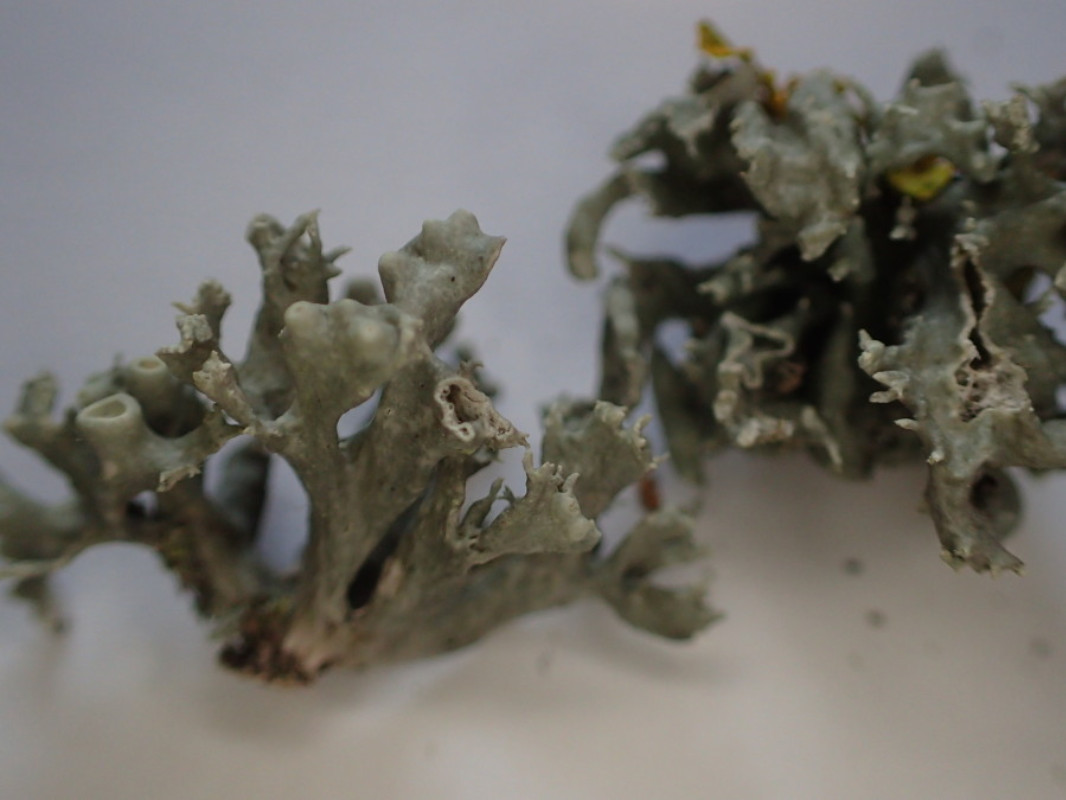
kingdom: Fungi
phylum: Ascomycota
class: Lecanoromycetes
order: Lecanorales
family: Ramalinaceae
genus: Ramalina
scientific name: Ramalina fastigiata
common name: tue-grenlav
